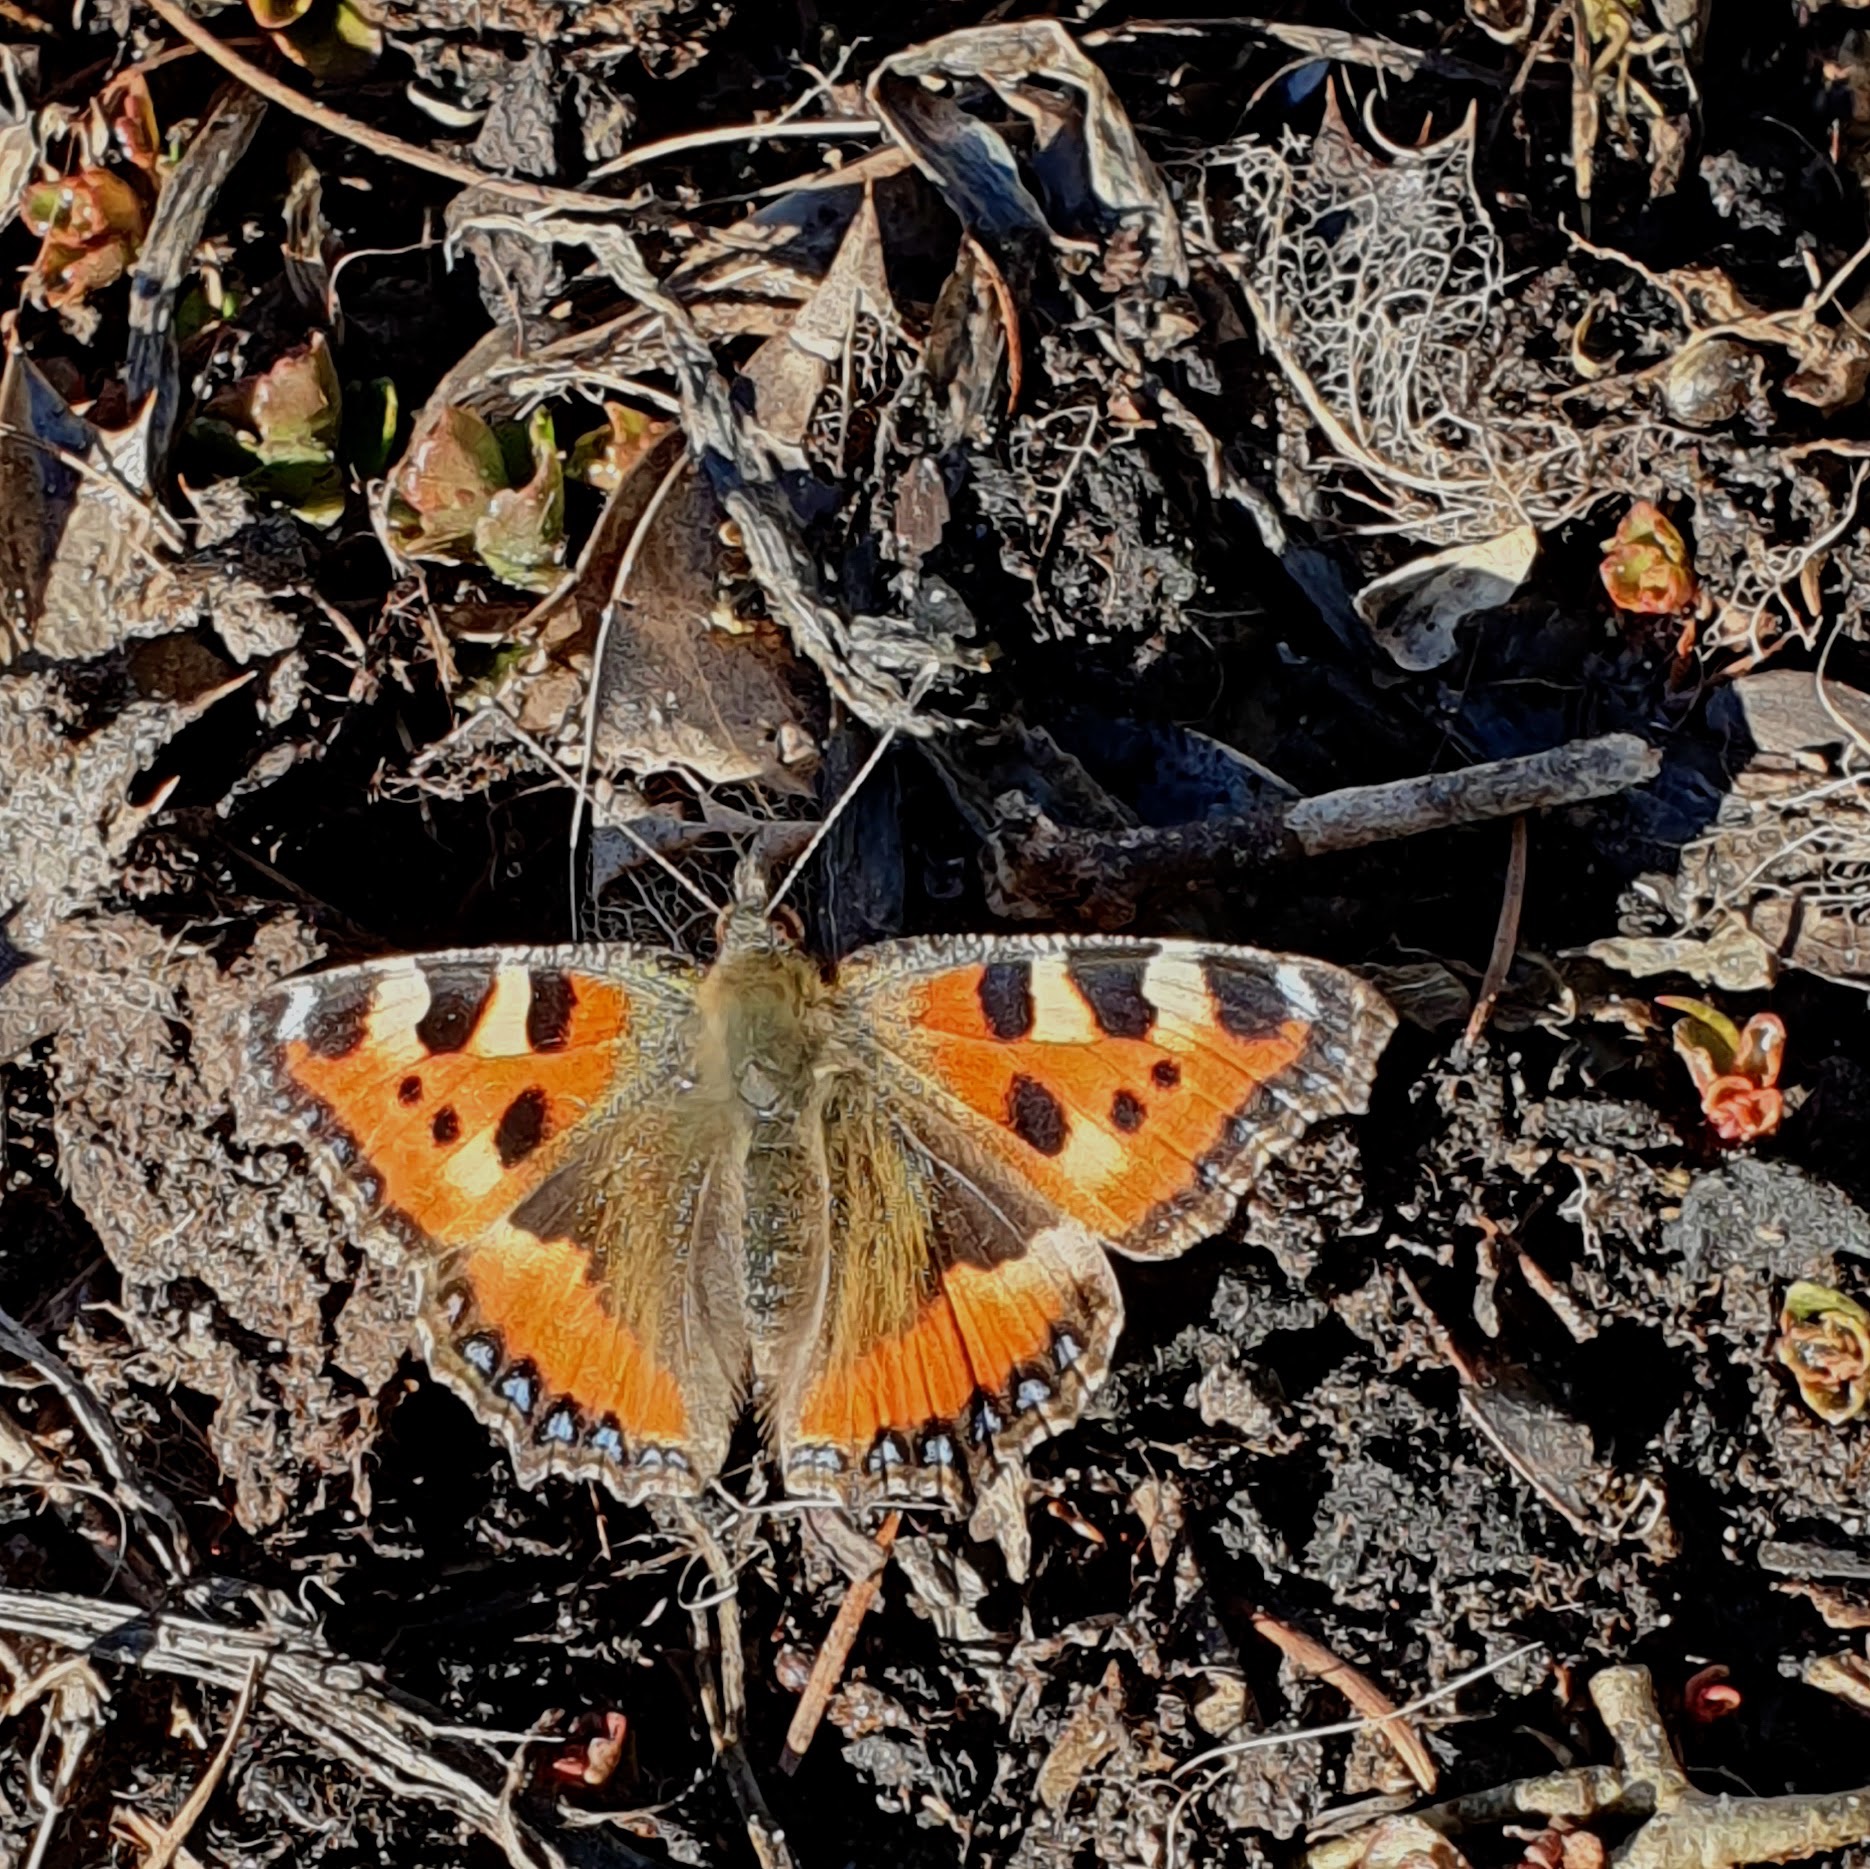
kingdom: Animalia
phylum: Arthropoda
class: Insecta
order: Lepidoptera
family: Nymphalidae
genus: Aglais
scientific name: Aglais urticae
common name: Nældens takvinge
